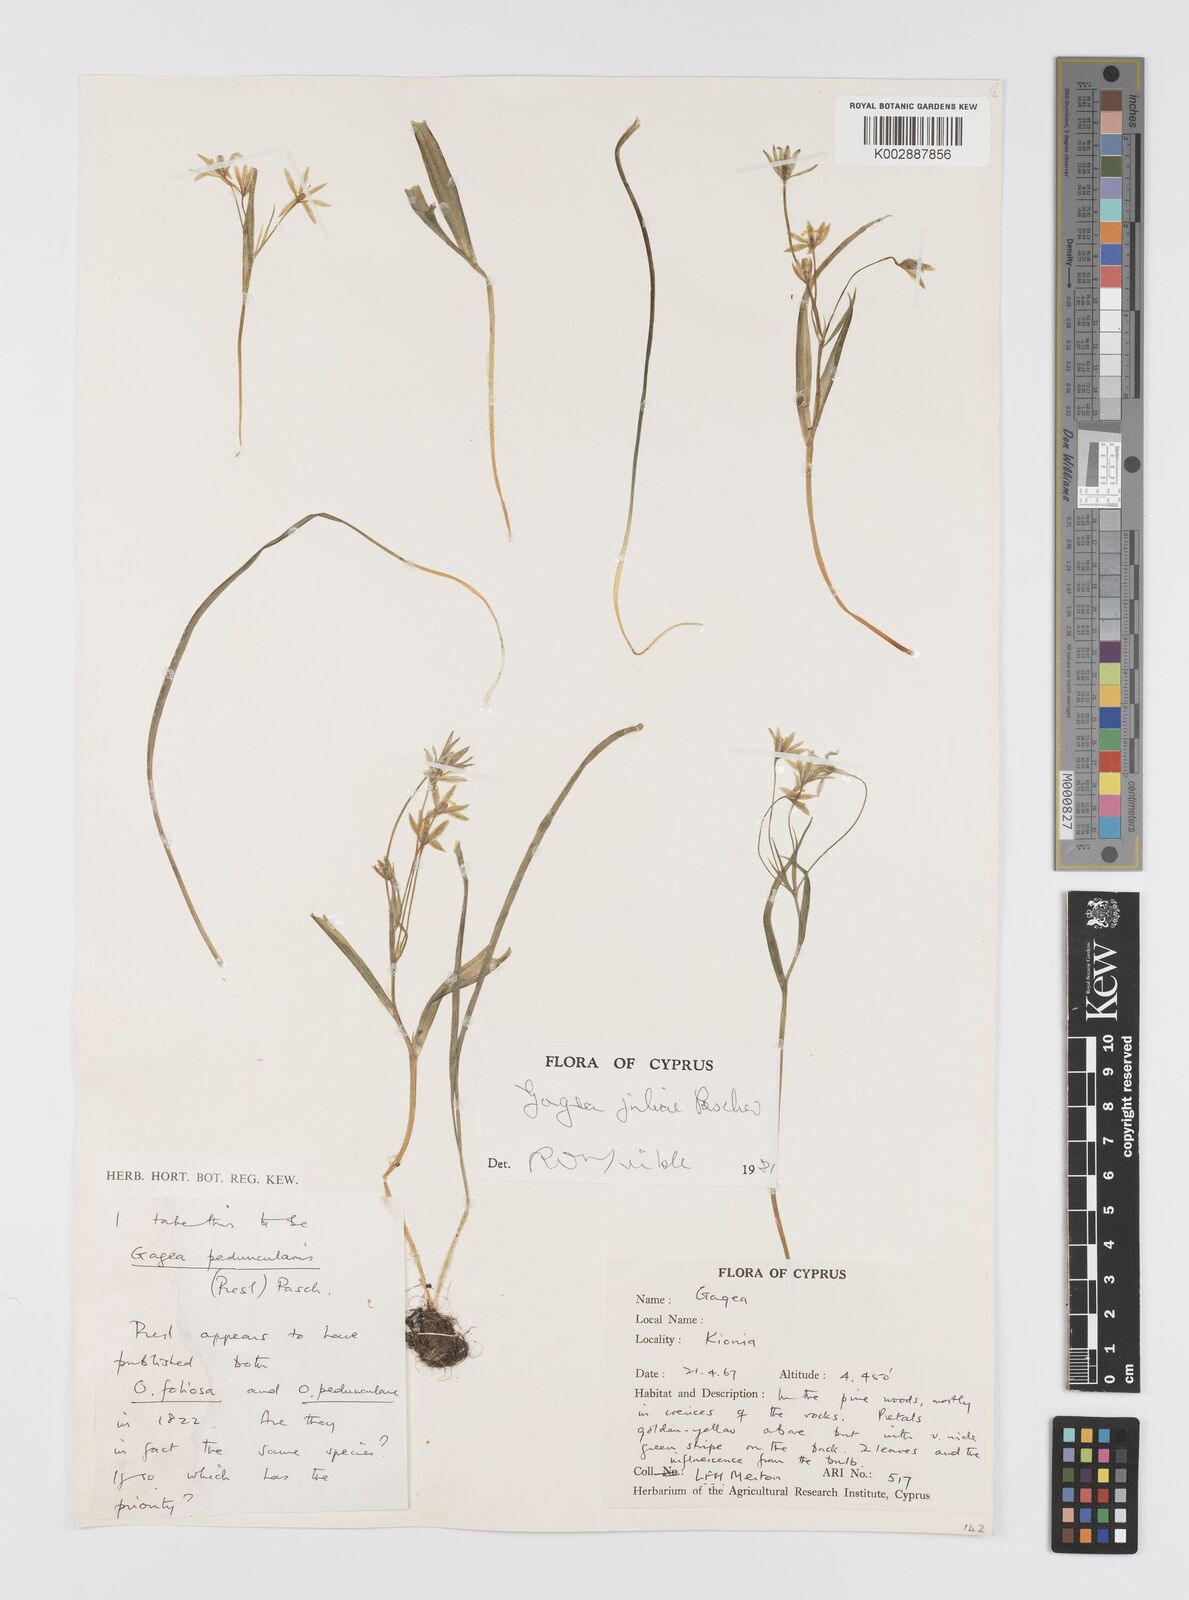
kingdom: Plantae
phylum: Tracheophyta
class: Liliopsida
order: Liliales
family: Liliaceae
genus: Gagea
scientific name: Gagea juliae
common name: Julia’s gagea
